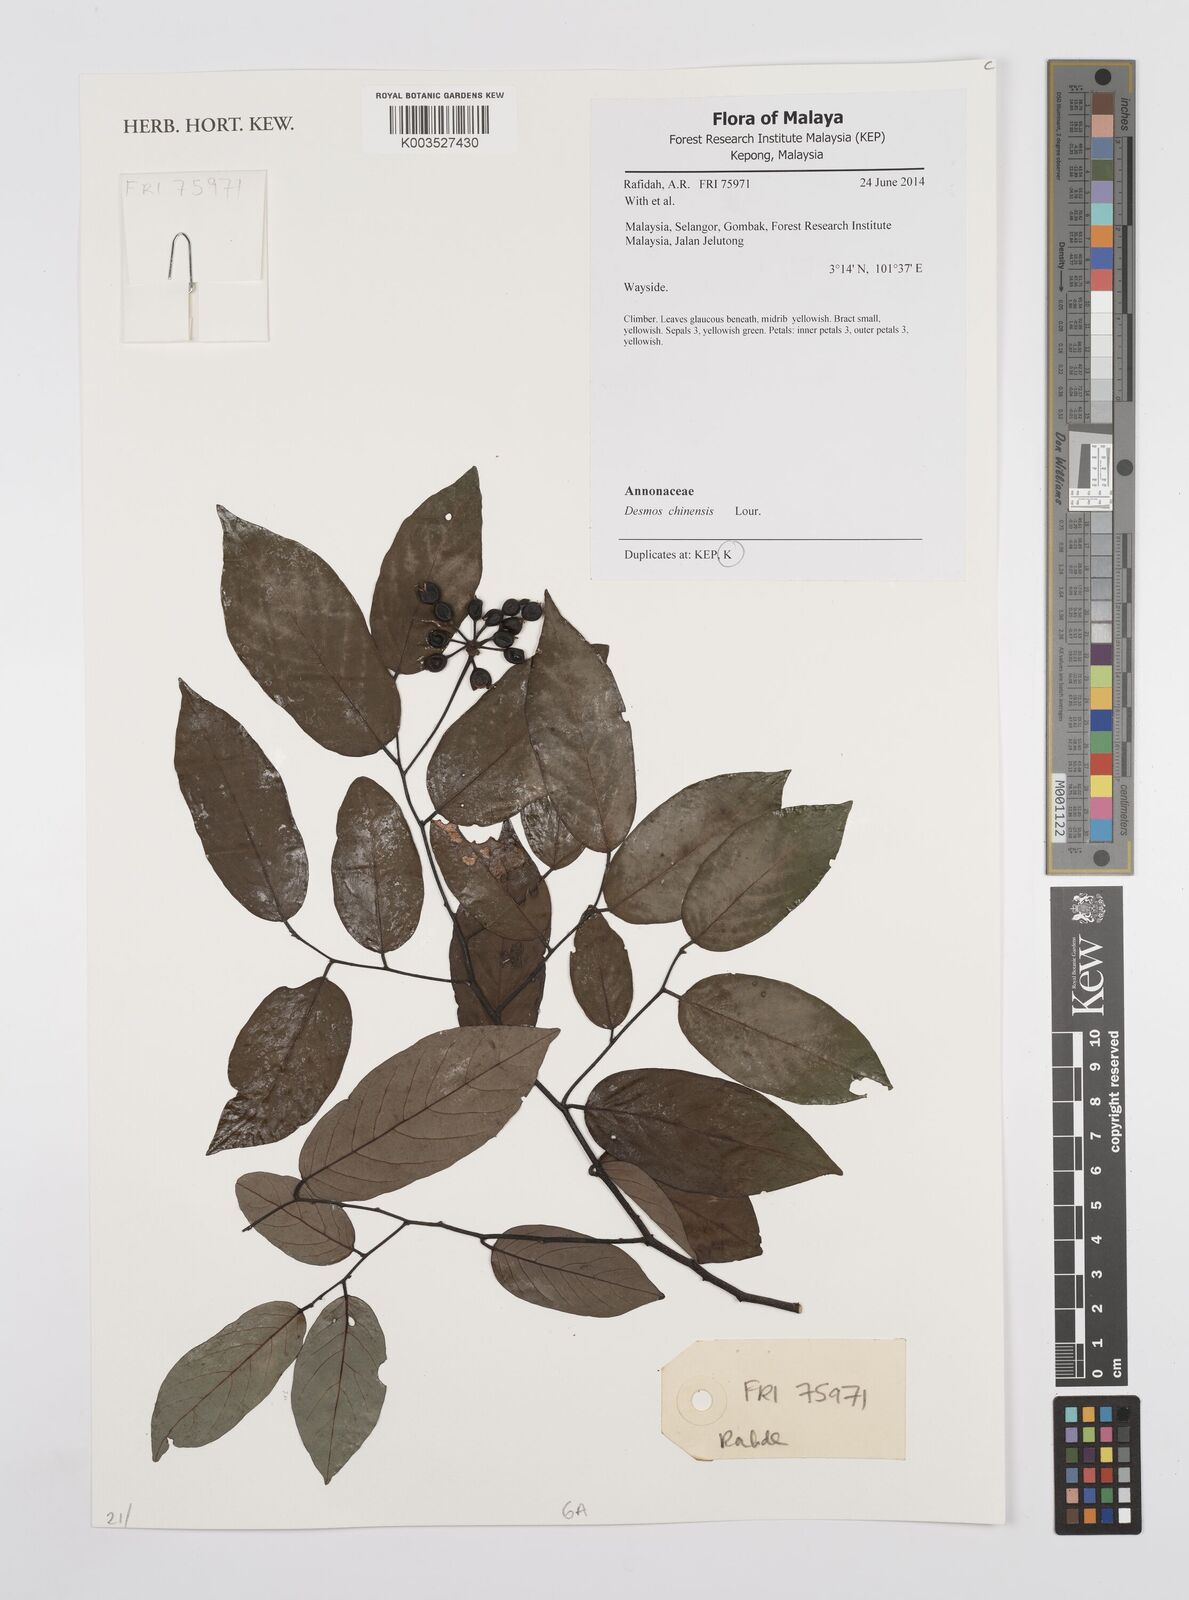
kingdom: Plantae
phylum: Tracheophyta
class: Magnoliopsida
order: Magnoliales
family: Annonaceae
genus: Desmos
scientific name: Desmos chinensis
